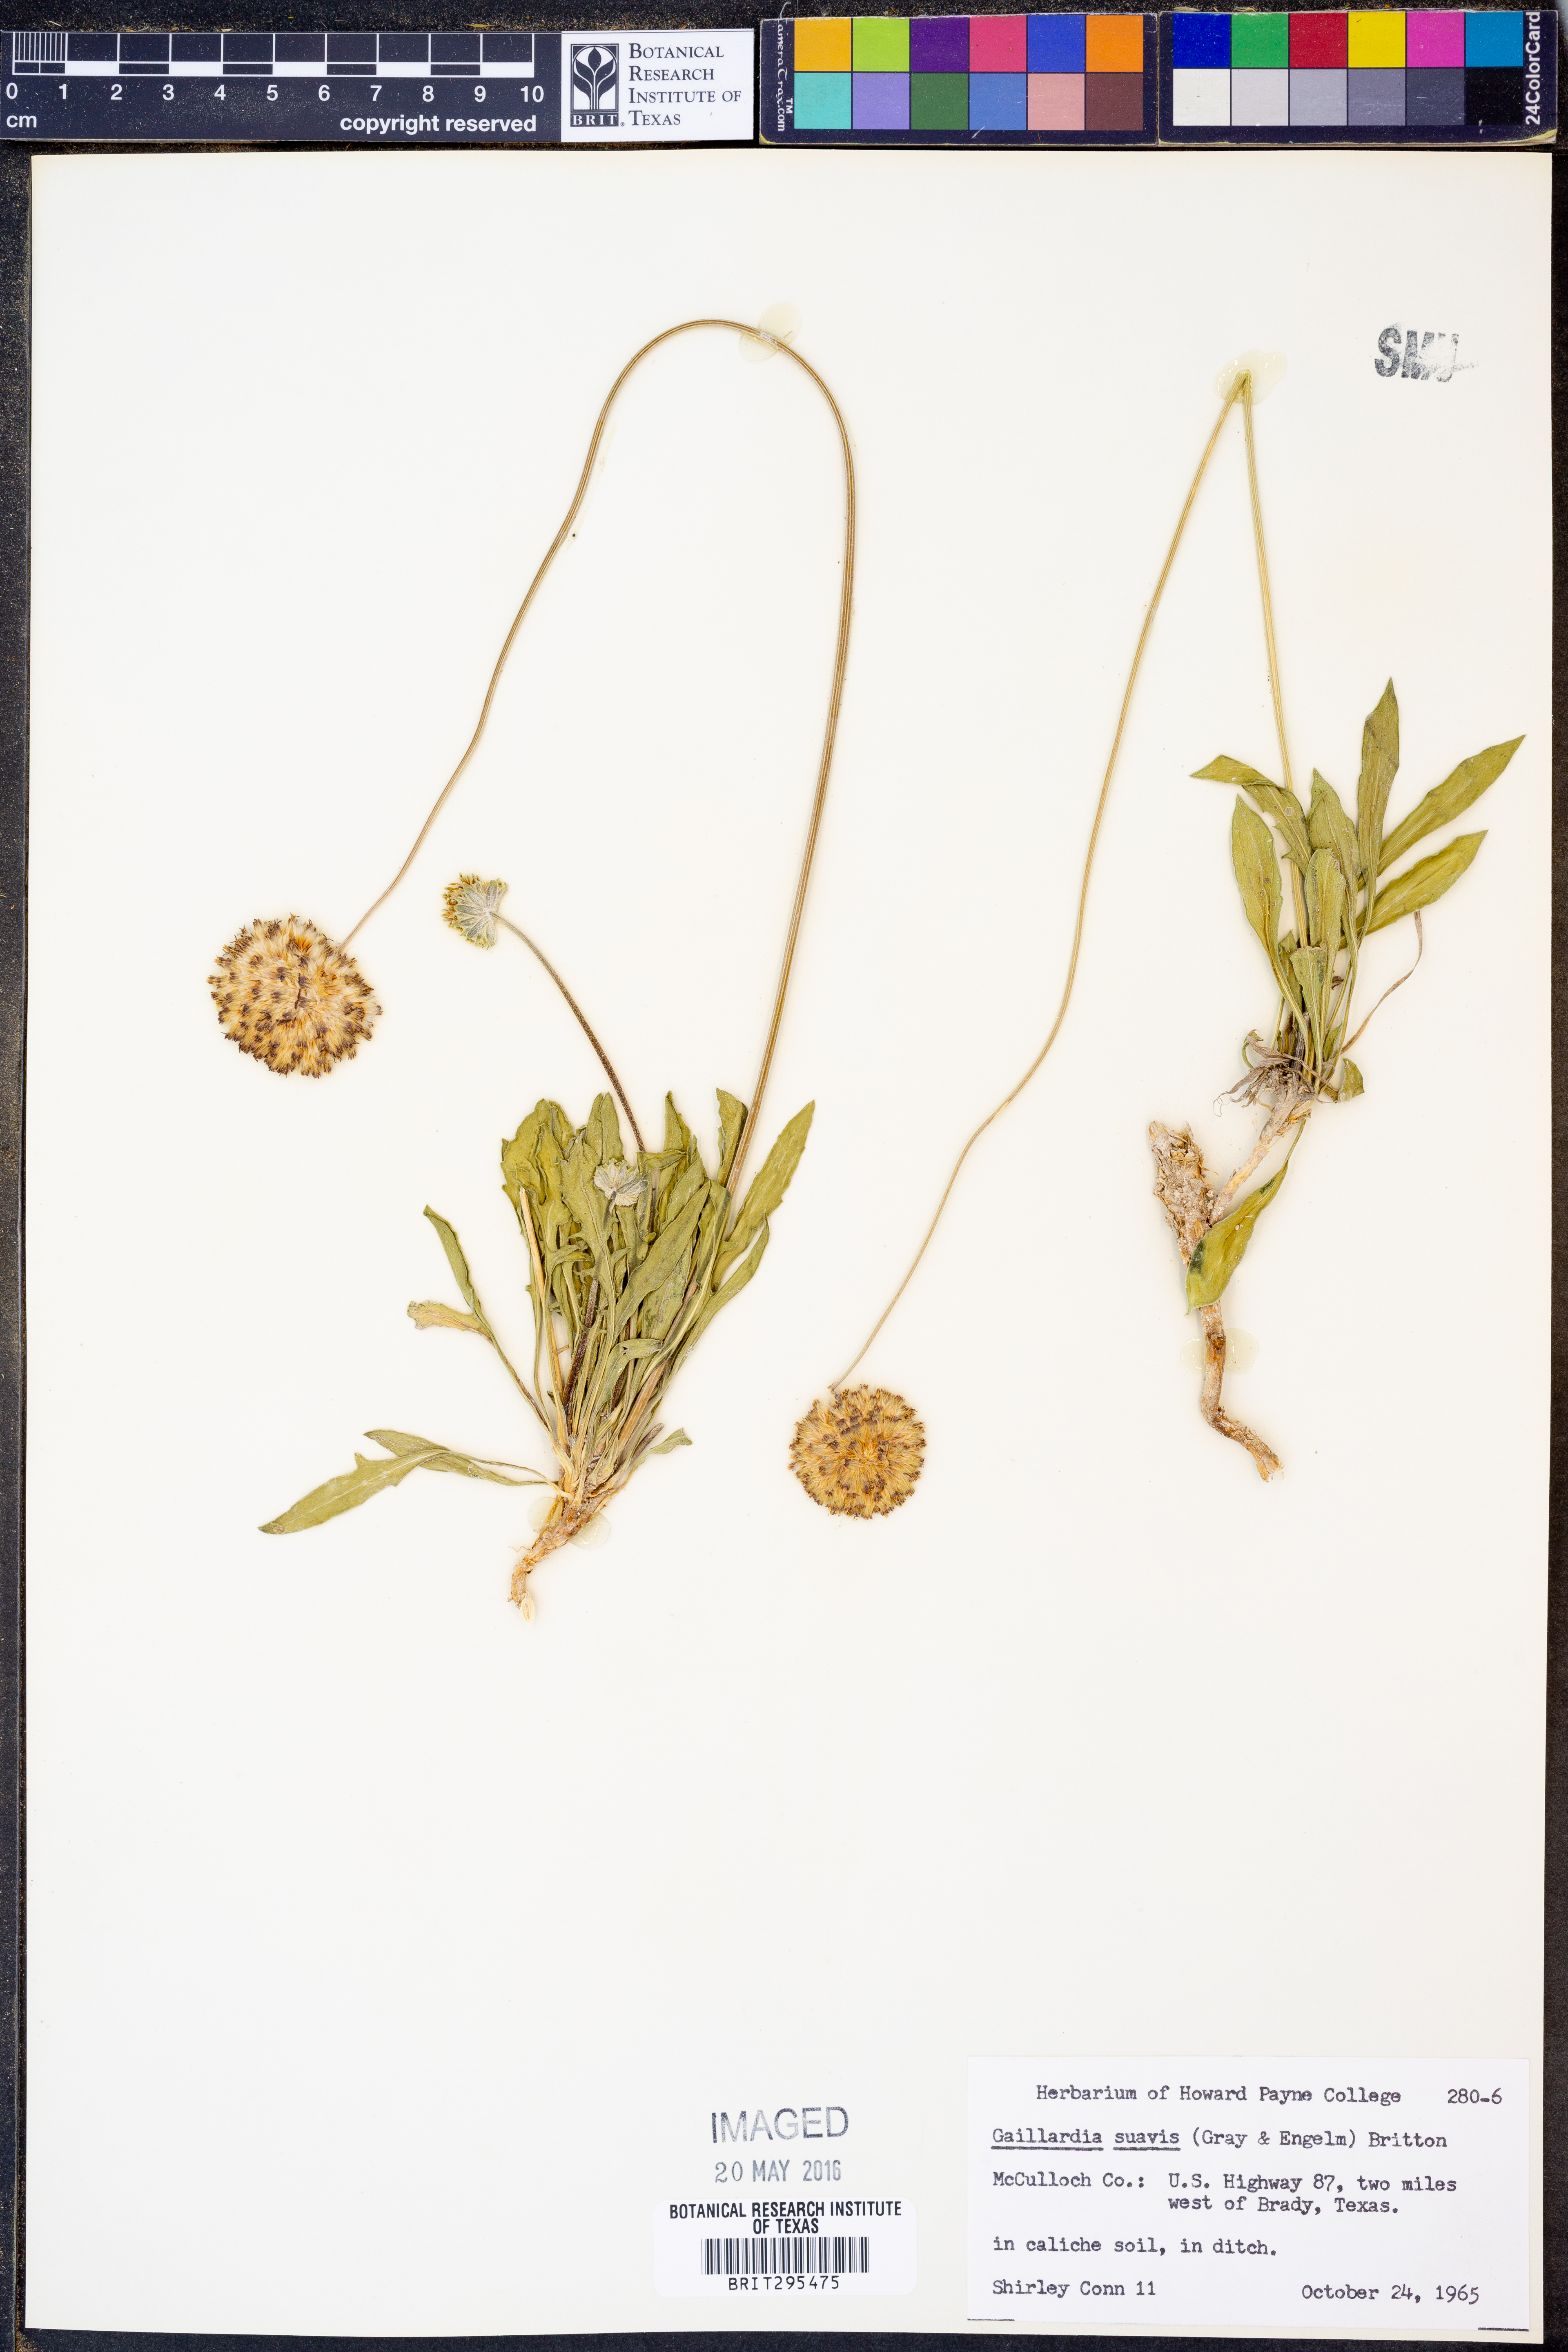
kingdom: Plantae
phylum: Tracheophyta
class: Magnoliopsida
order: Asterales
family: Asteraceae
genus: Gaillardia
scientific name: Gaillardia suavis
